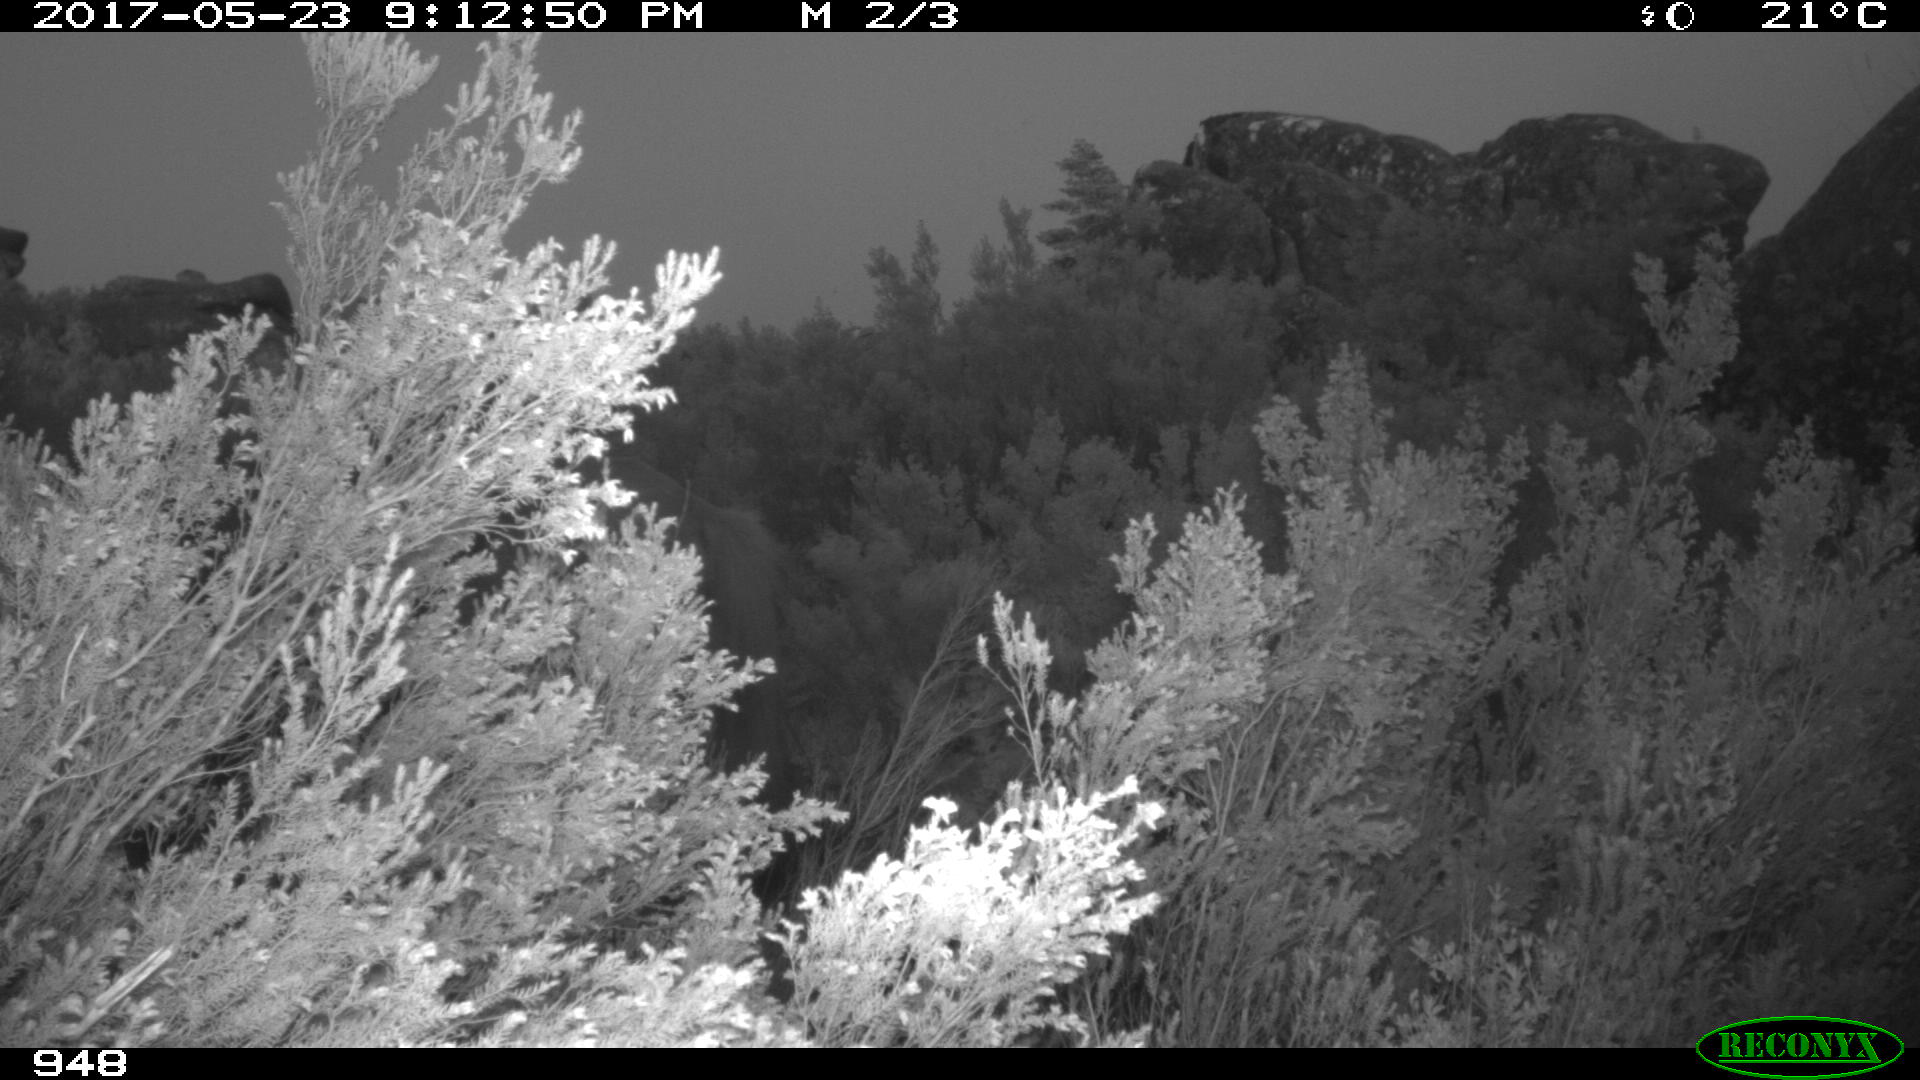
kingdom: Animalia
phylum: Chordata
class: Mammalia
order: Perissodactyla
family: Equidae
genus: Equus
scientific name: Equus caballus
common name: Horse
